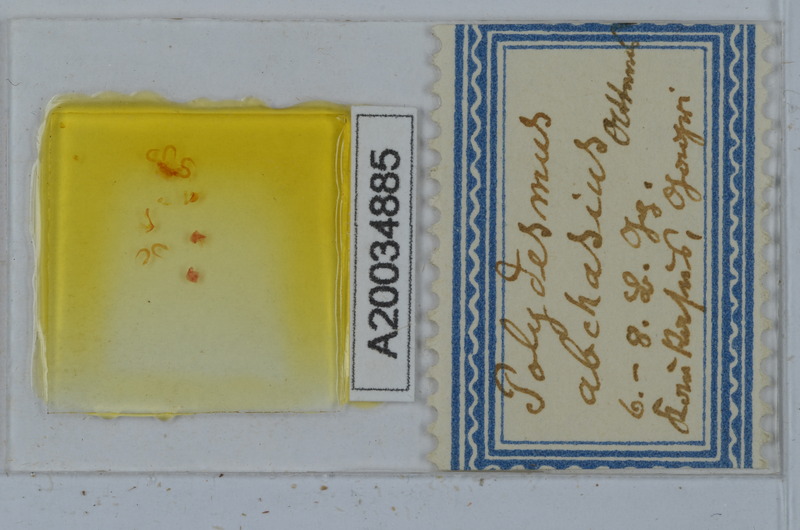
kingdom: Animalia
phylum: Arthropoda
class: Diplopoda
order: Polydesmida
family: Polydesmidae
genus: Polydesmus
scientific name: Polydesmus abchasius
